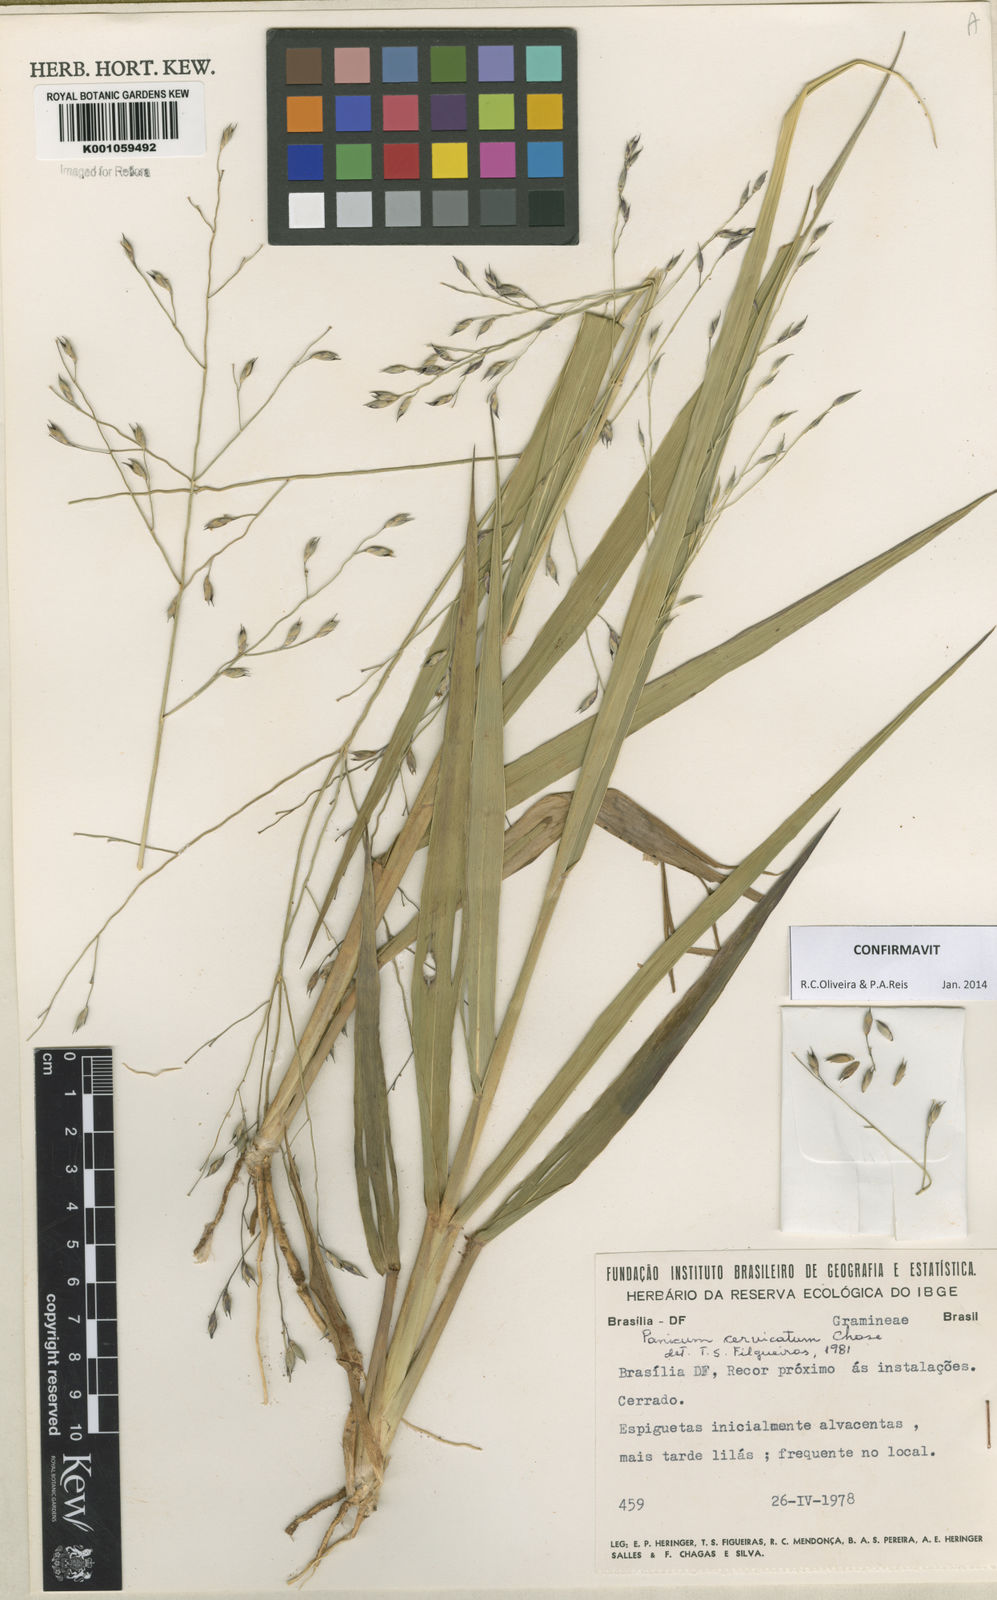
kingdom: Plantae
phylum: Tracheophyta
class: Liliopsida
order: Poales
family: Poaceae
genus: Panicum
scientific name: Panicum cervicatum
